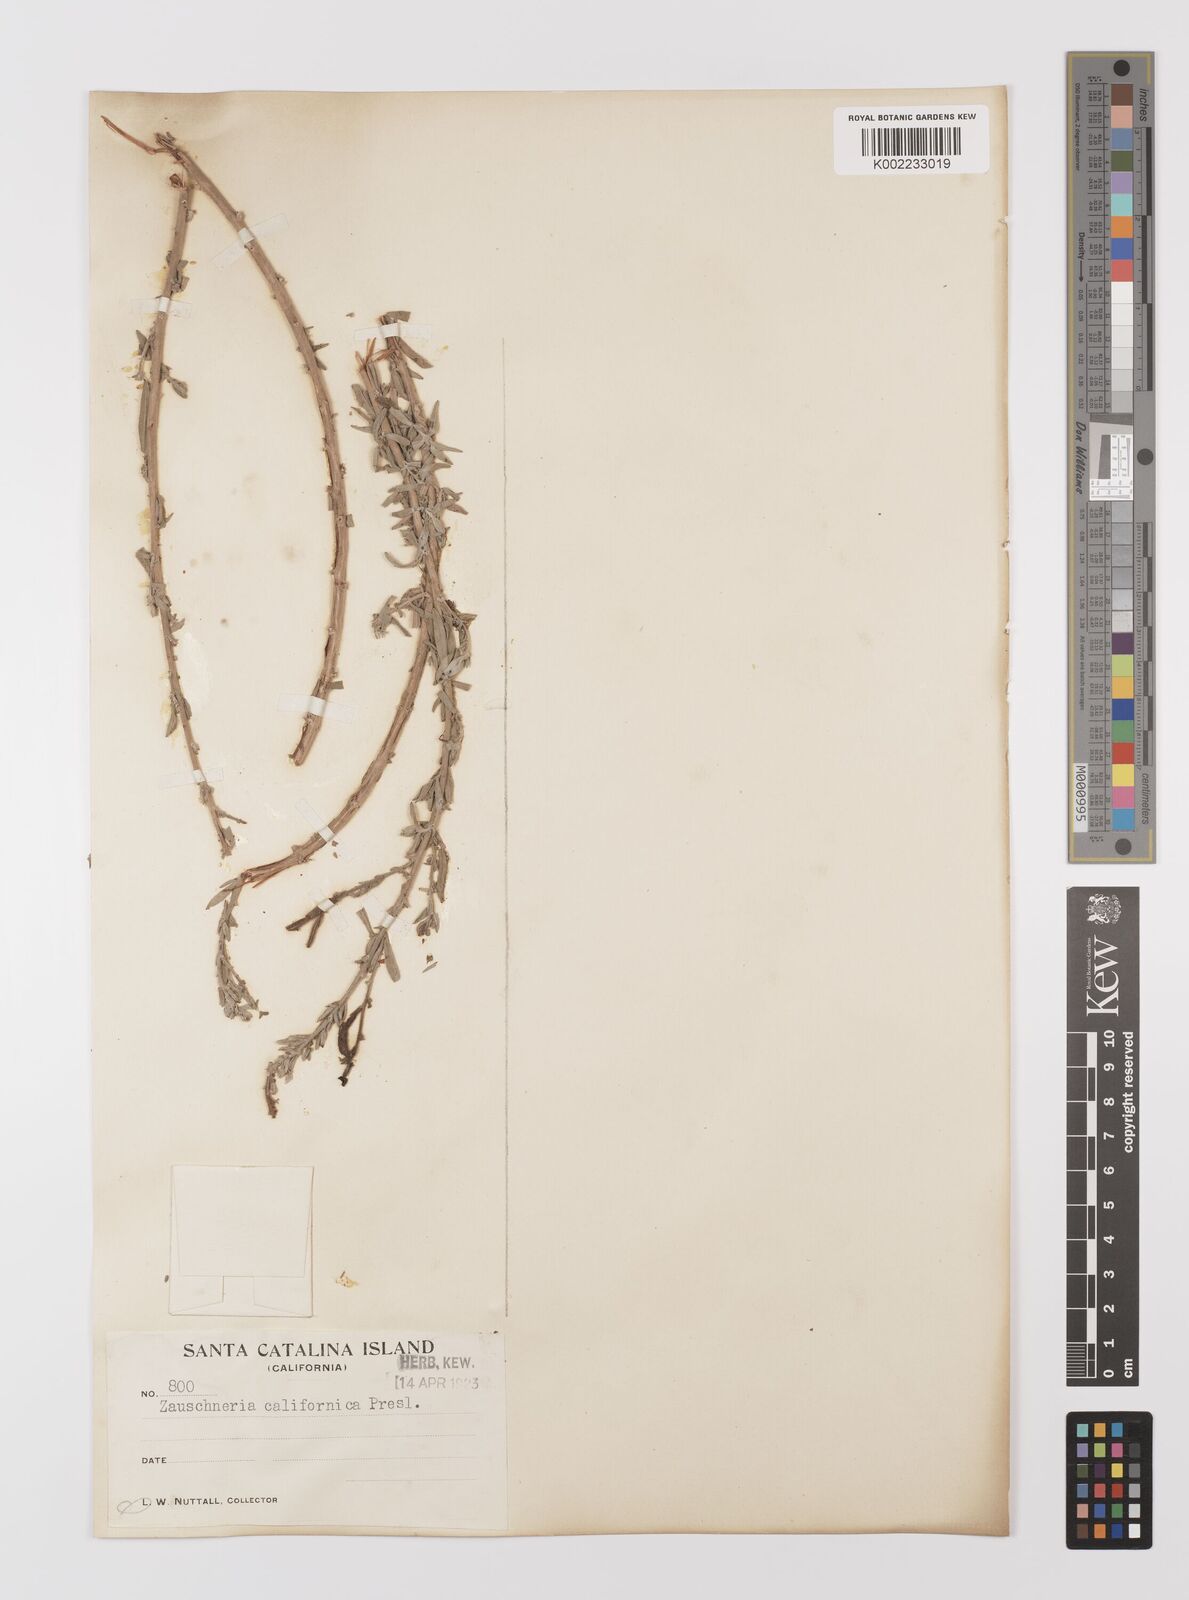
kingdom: Plantae
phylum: Tracheophyta
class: Magnoliopsida
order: Myrtales
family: Onagraceae
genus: Epilobium
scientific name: Epilobium canum
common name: California-fuchsia
